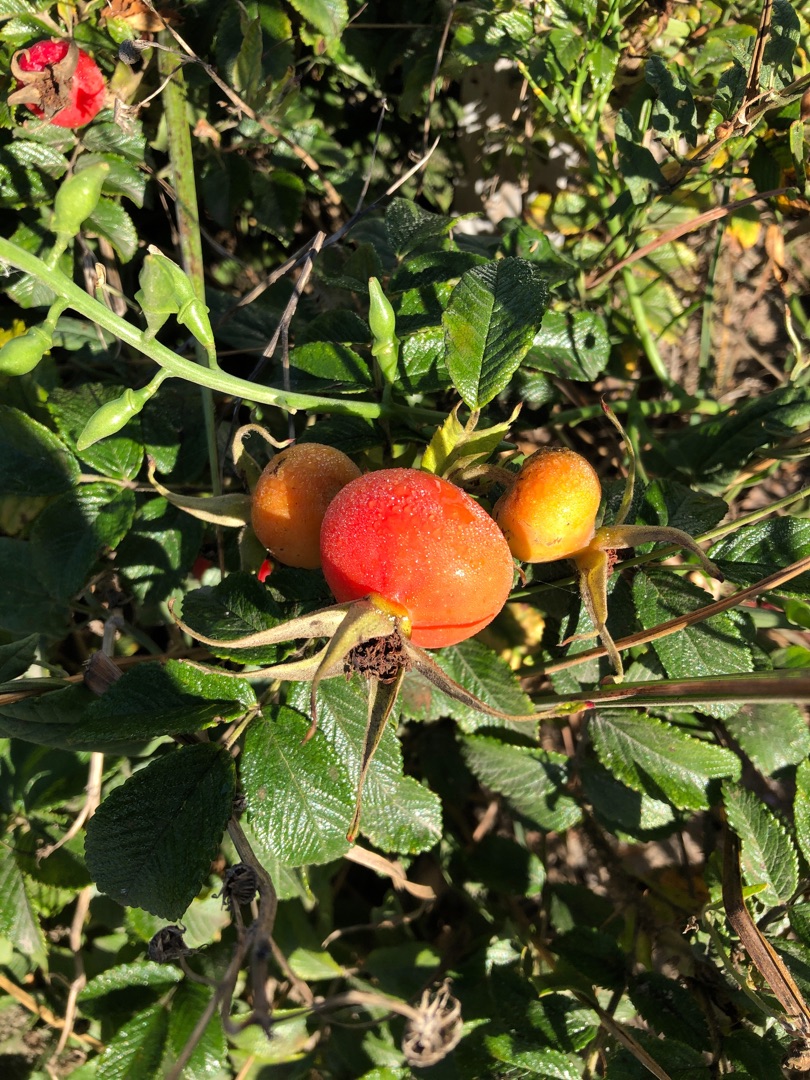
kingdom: Plantae
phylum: Tracheophyta
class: Magnoliopsida
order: Rosales
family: Rosaceae
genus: Rosa
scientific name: Rosa rugosa
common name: Rynket rose
